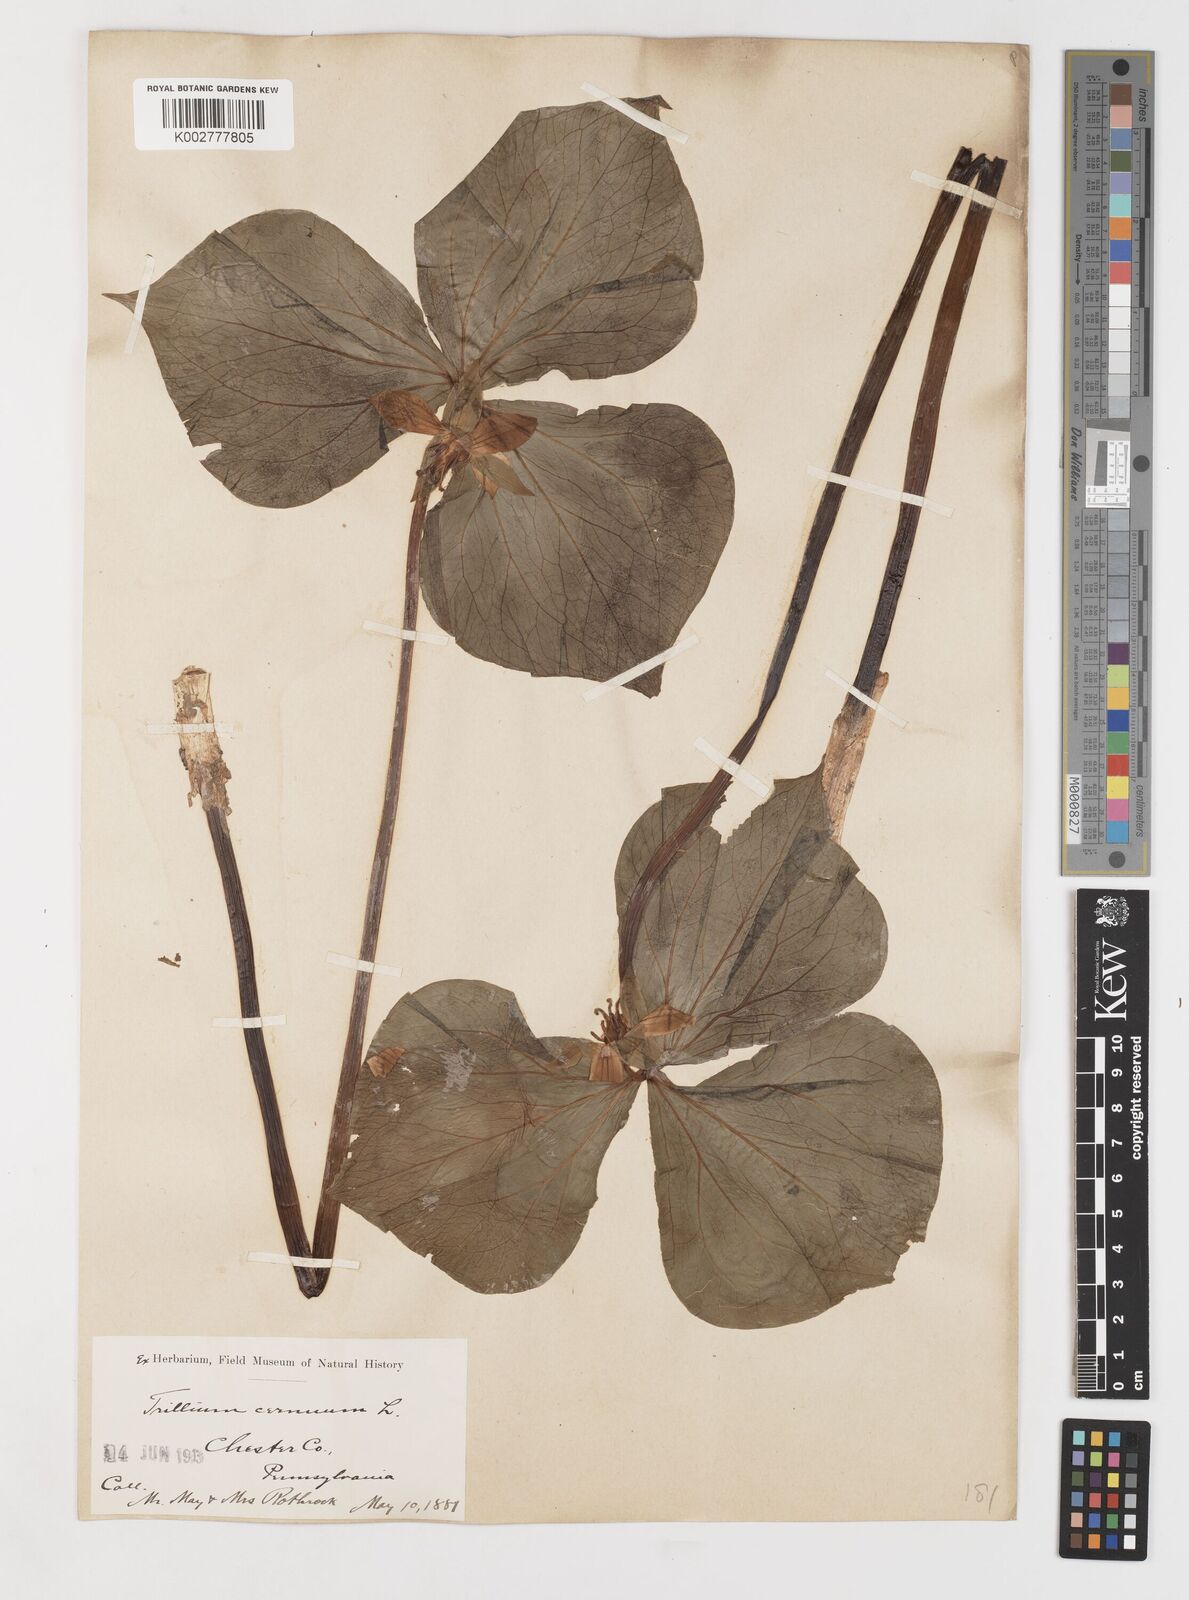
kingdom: Plantae
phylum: Tracheophyta
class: Liliopsida
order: Liliales
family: Melanthiaceae
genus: Trillium
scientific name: Trillium cernuum
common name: Nodding trillium
